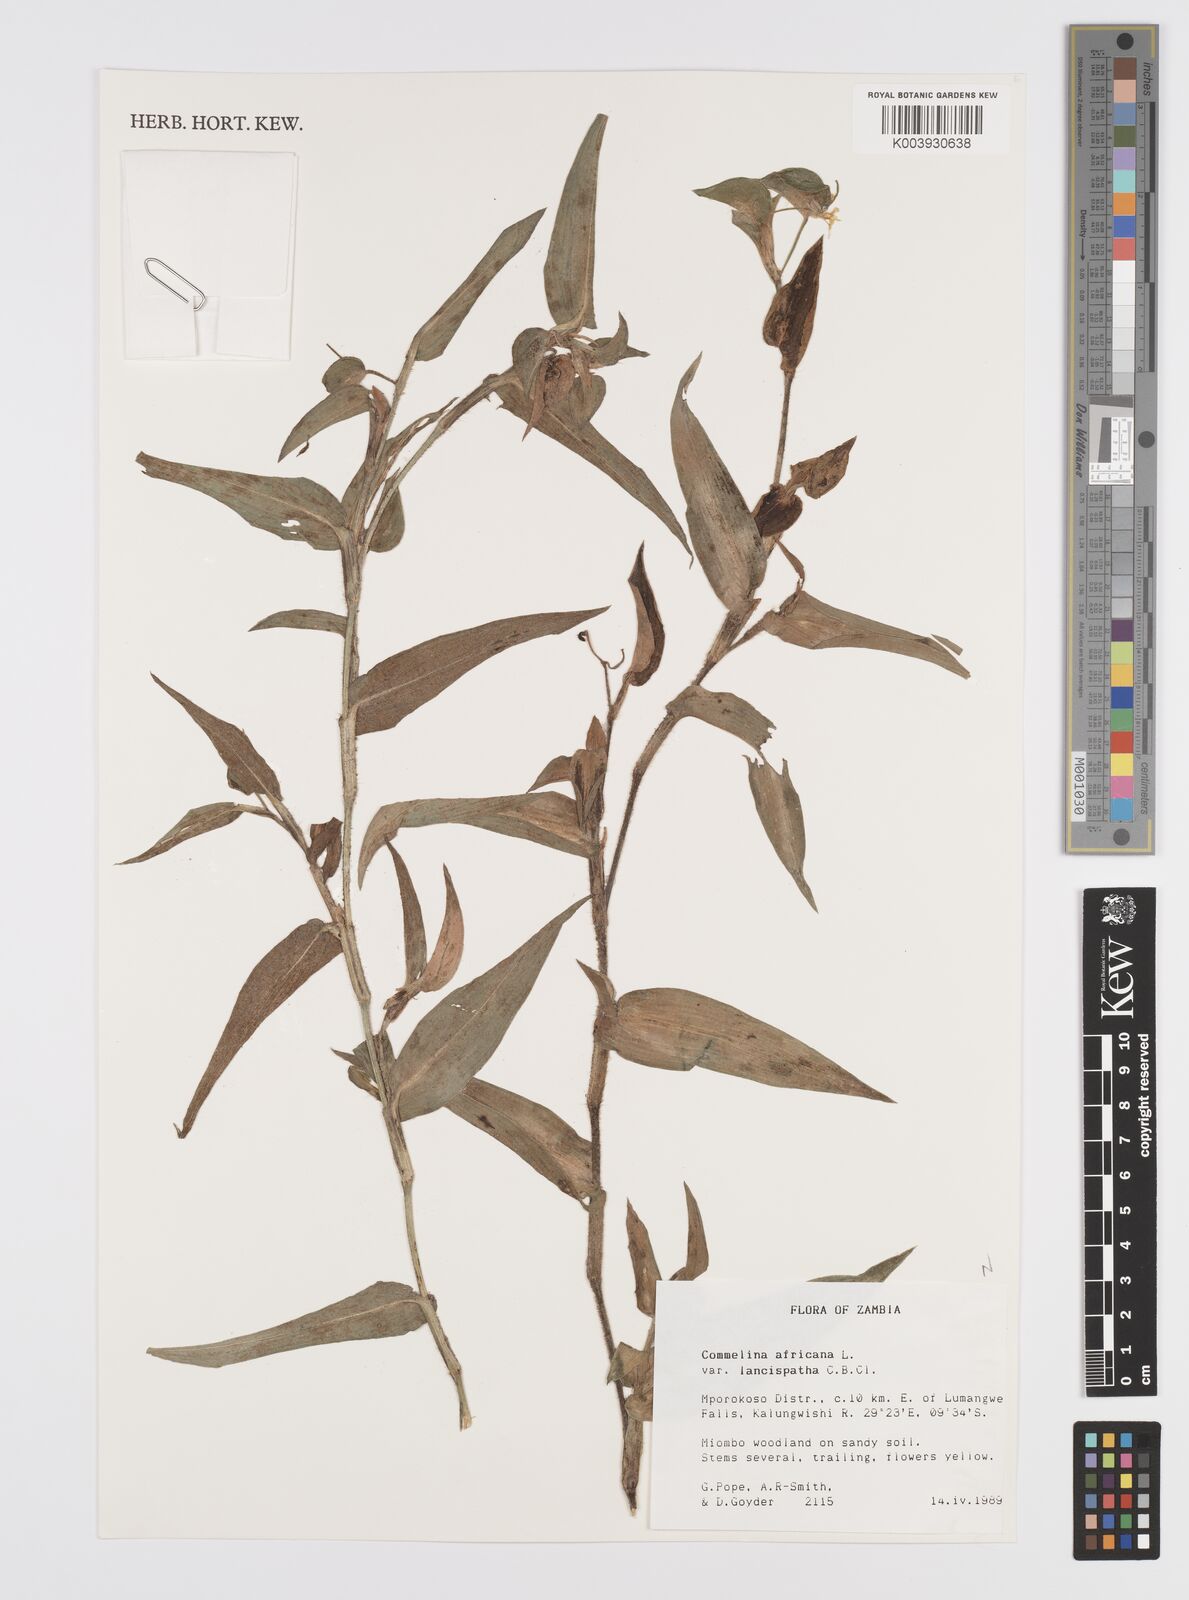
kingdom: Plantae
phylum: Tracheophyta
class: Liliopsida
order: Commelinales
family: Commelinaceae
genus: Commelina
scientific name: Commelina africana
